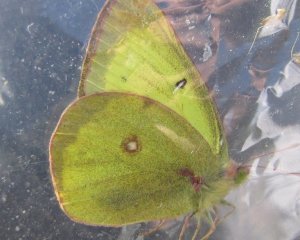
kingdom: Animalia
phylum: Arthropoda
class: Insecta
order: Lepidoptera
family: Pieridae
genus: Colias
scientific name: Colias philodice
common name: Clouded Sulphur
